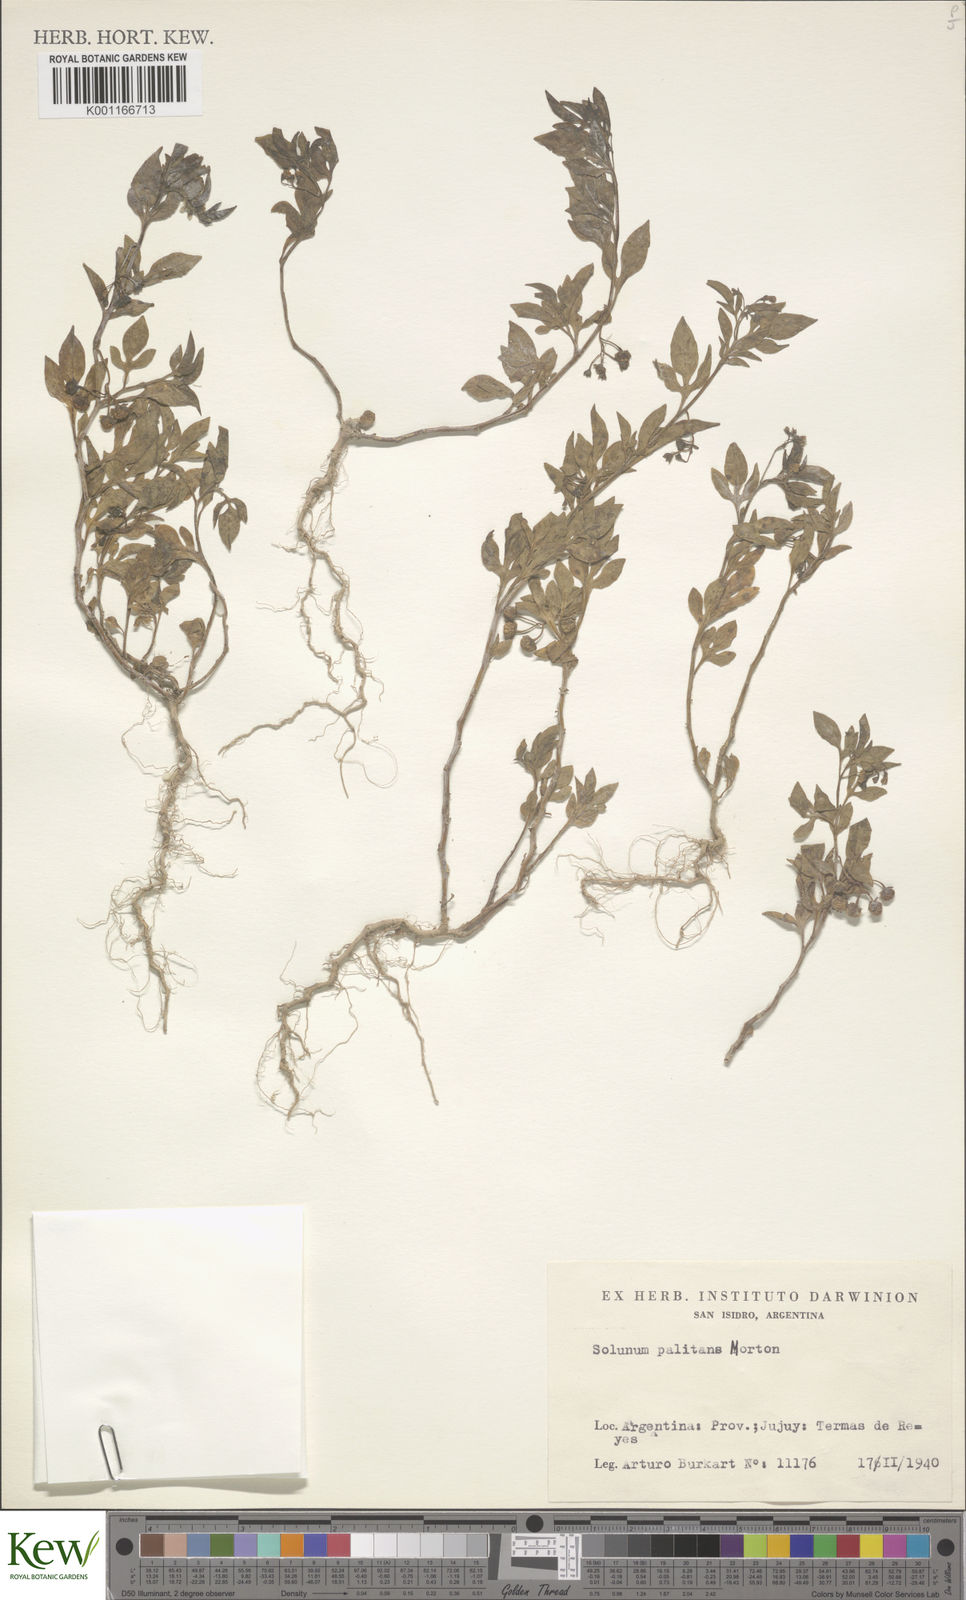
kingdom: Plantae
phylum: Tracheophyta
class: Magnoliopsida
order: Solanales
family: Solanaceae
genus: Solanum
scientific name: Solanum palitans
